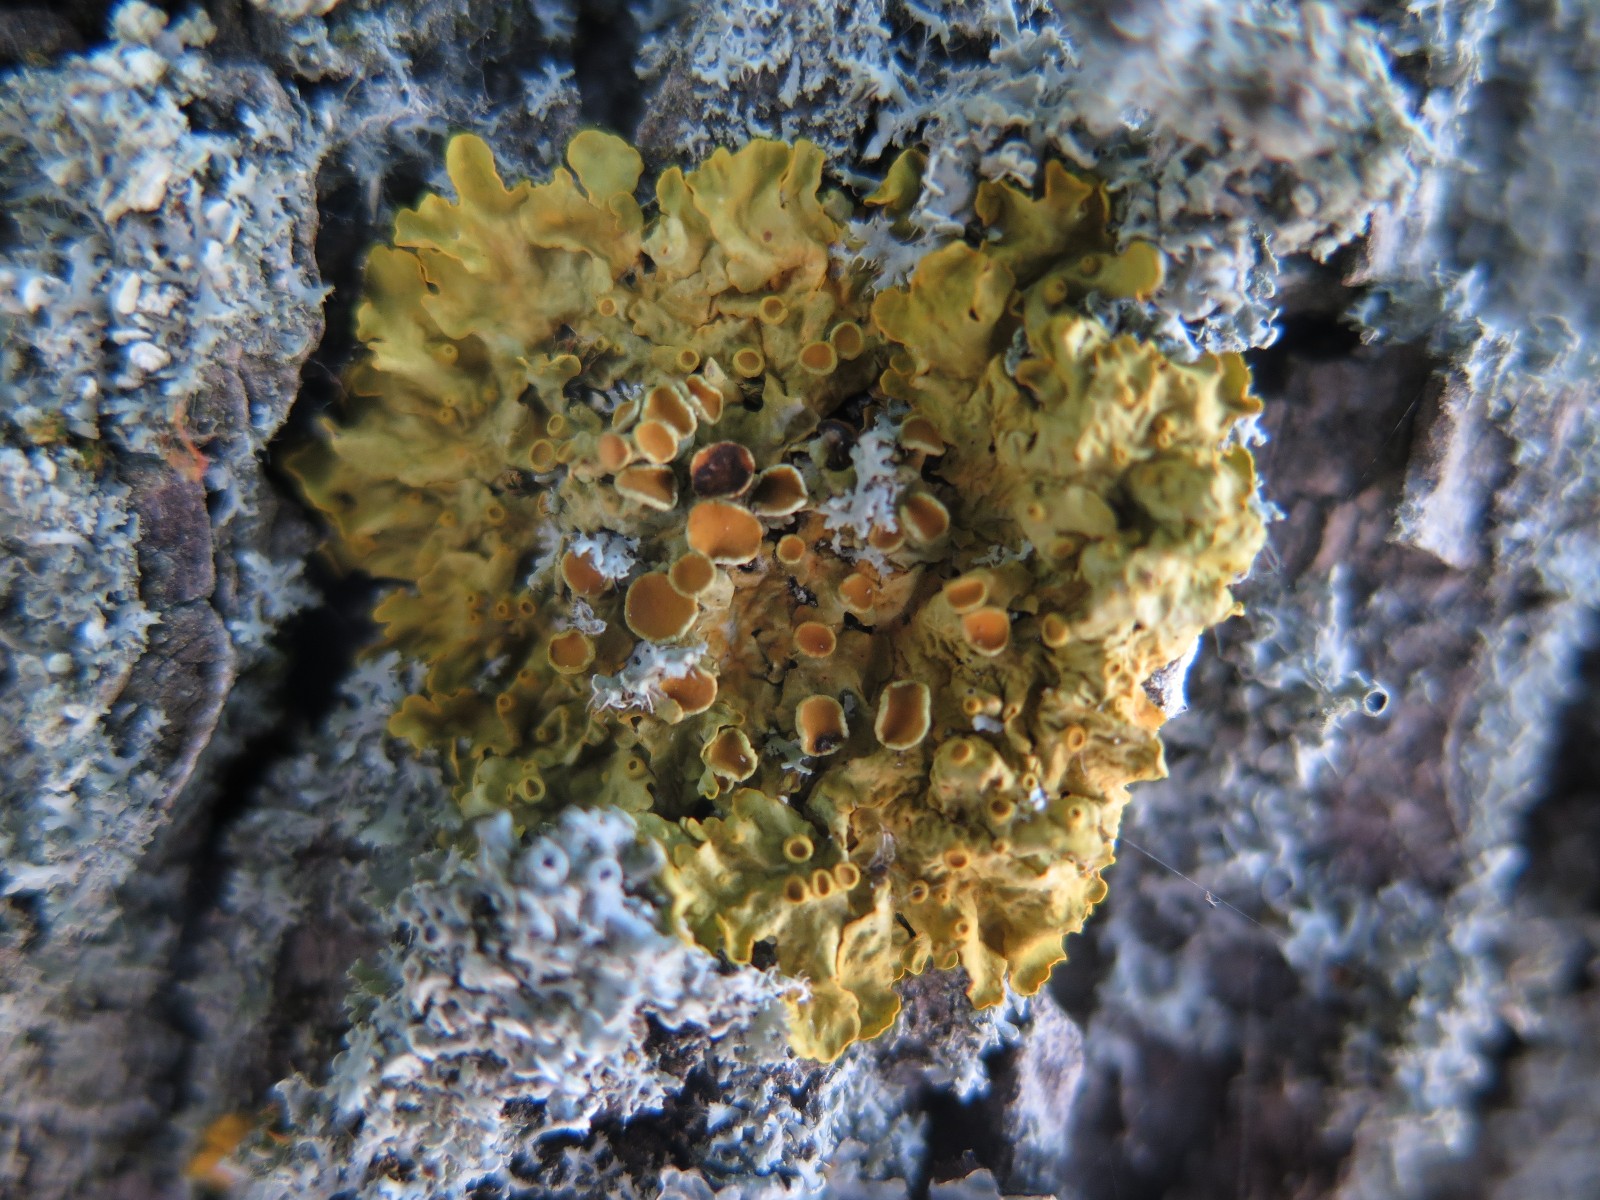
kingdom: Fungi
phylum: Ascomycota
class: Lecanoromycetes
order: Teloschistales
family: Teloschistaceae
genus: Xanthoria
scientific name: Xanthoria parietina
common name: almindelig væggelav
